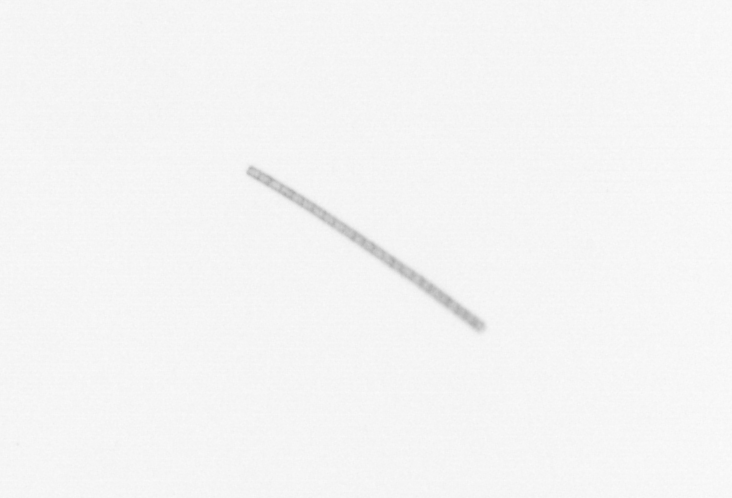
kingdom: Chromista
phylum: Ochrophyta
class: Bacillariophyceae
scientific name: Bacillariophyceae
